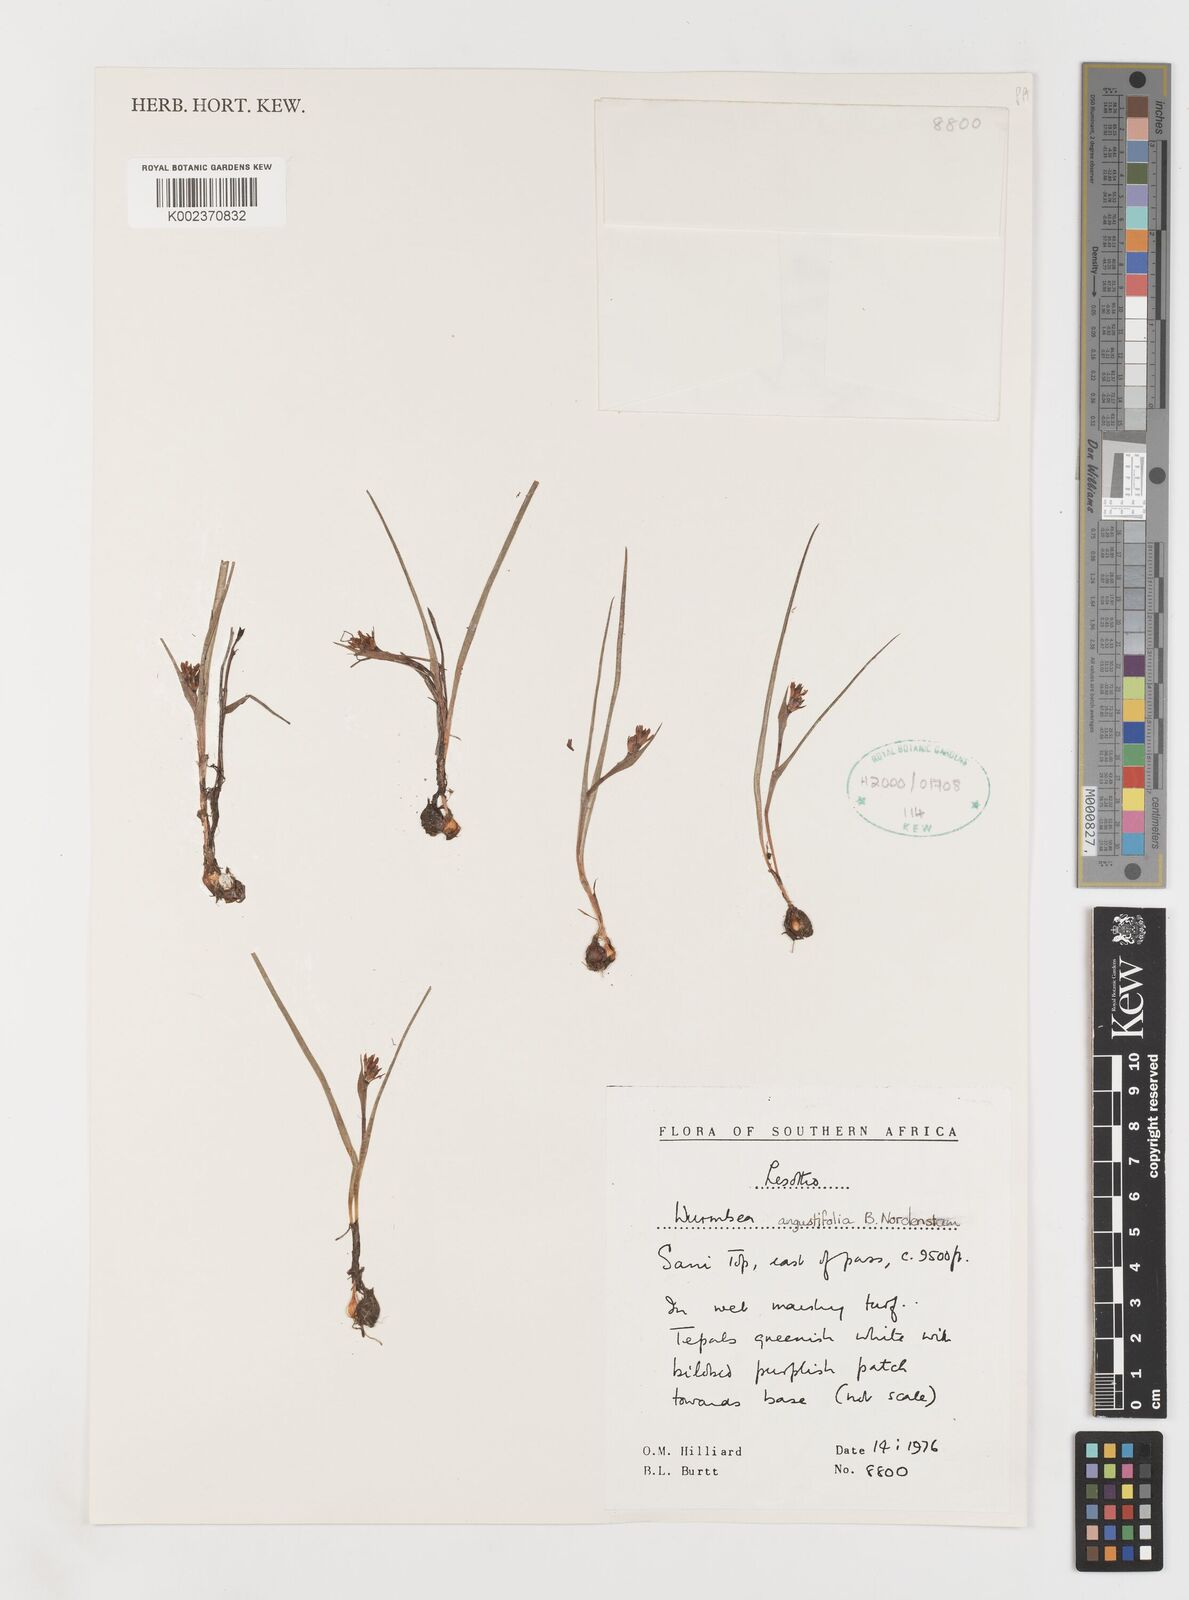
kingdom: Plantae
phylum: Tracheophyta
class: Liliopsida
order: Liliales
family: Colchicaceae
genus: Wurmbea
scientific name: Wurmbea angustifolia
